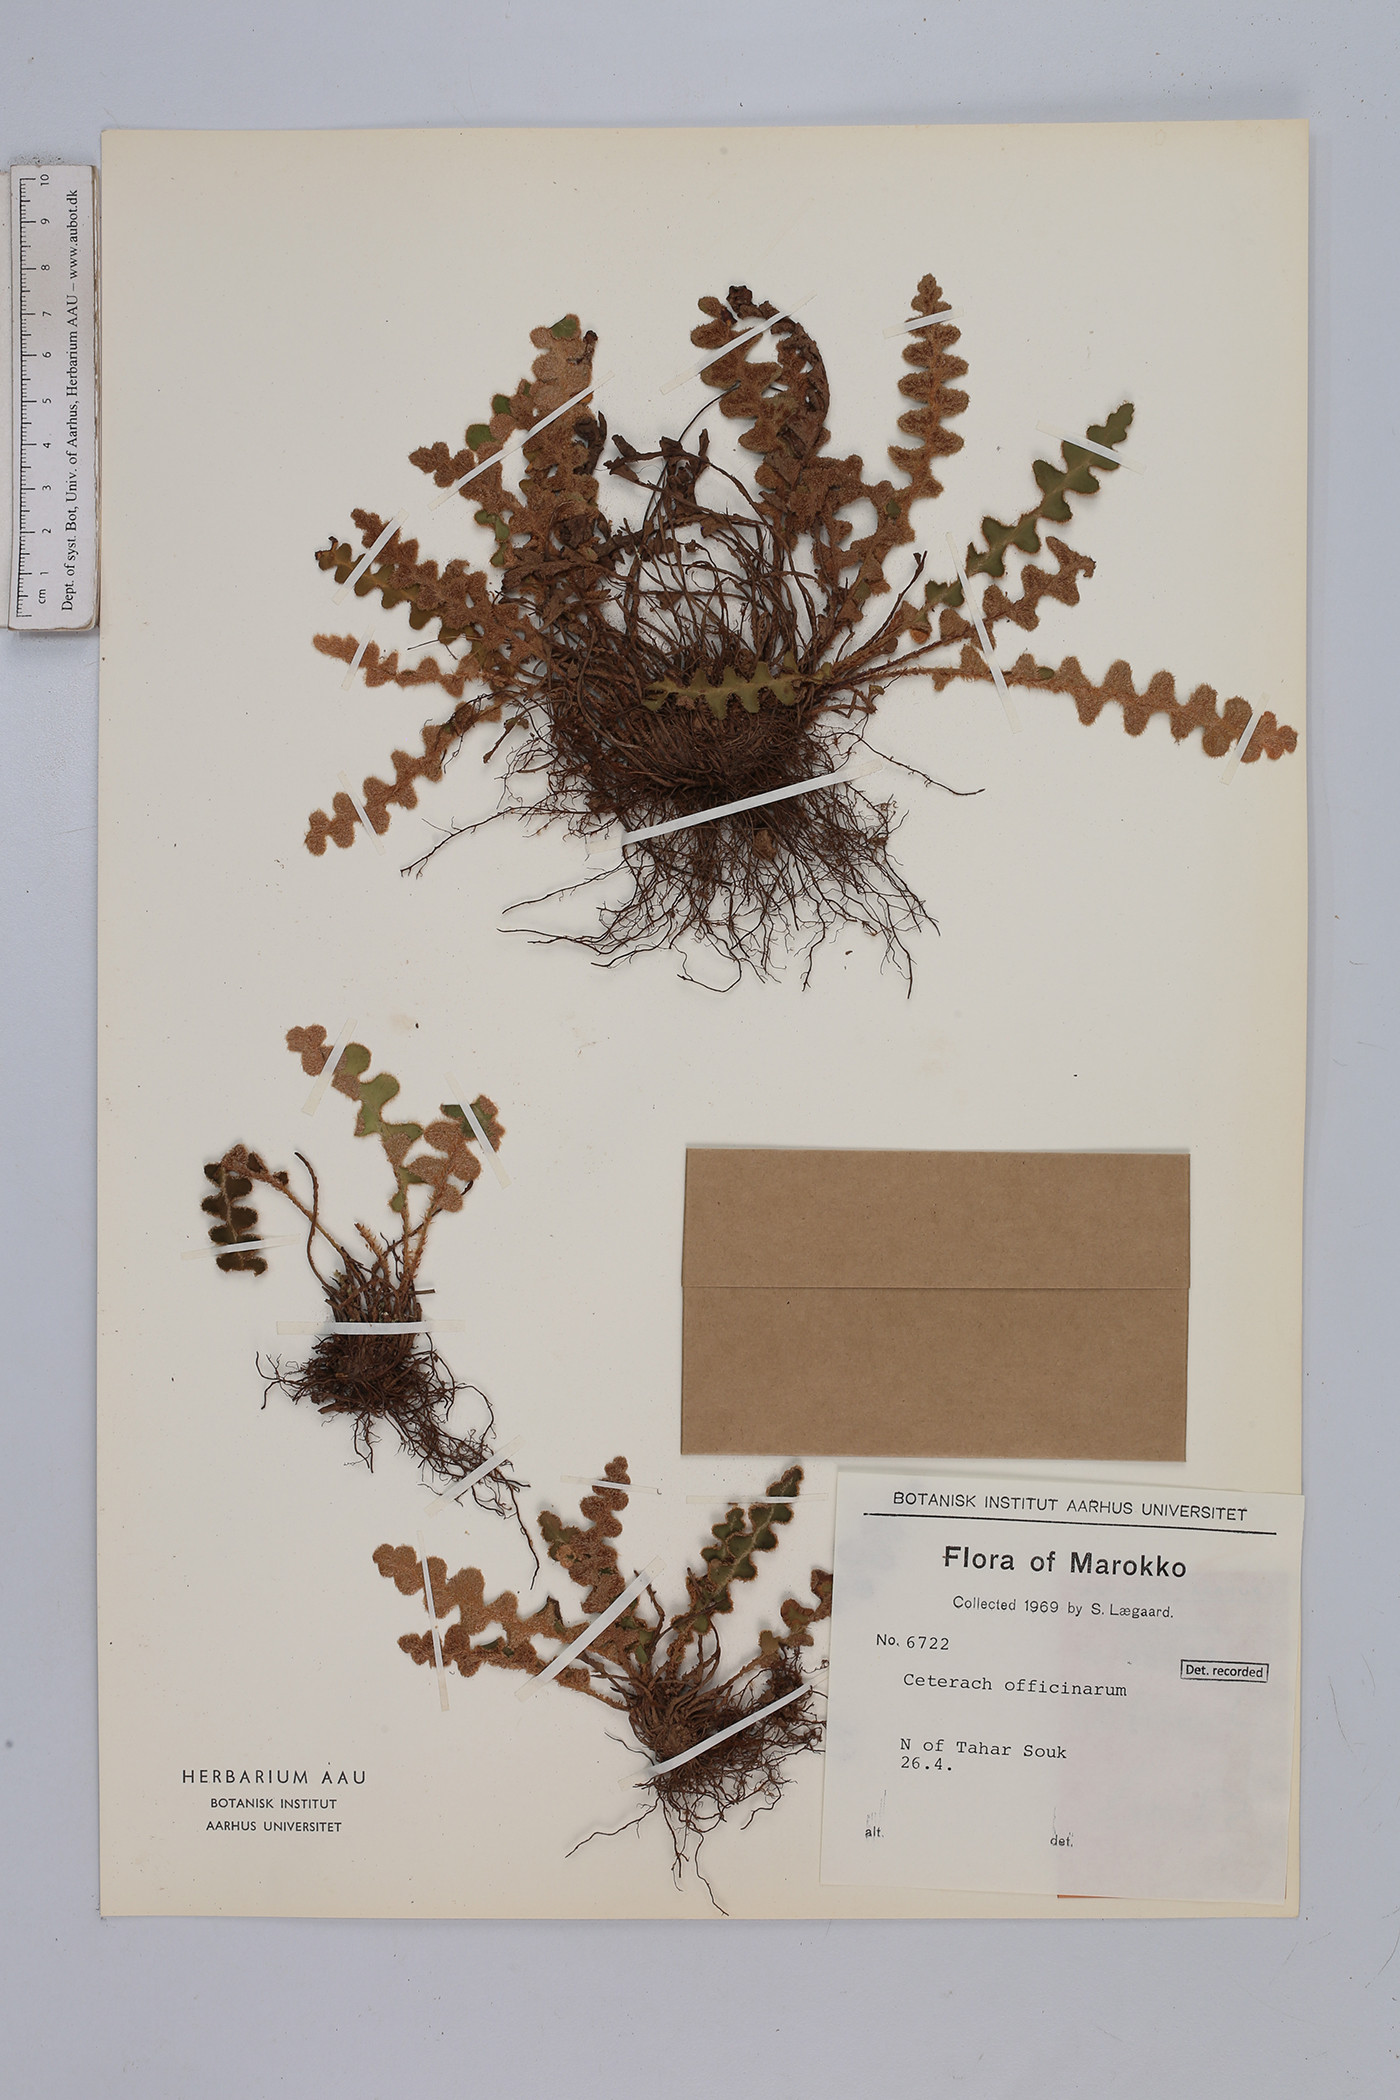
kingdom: Plantae
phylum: Tracheophyta
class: Polypodiopsida
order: Polypodiales
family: Aspleniaceae
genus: Asplenium
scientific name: Asplenium ceterach
